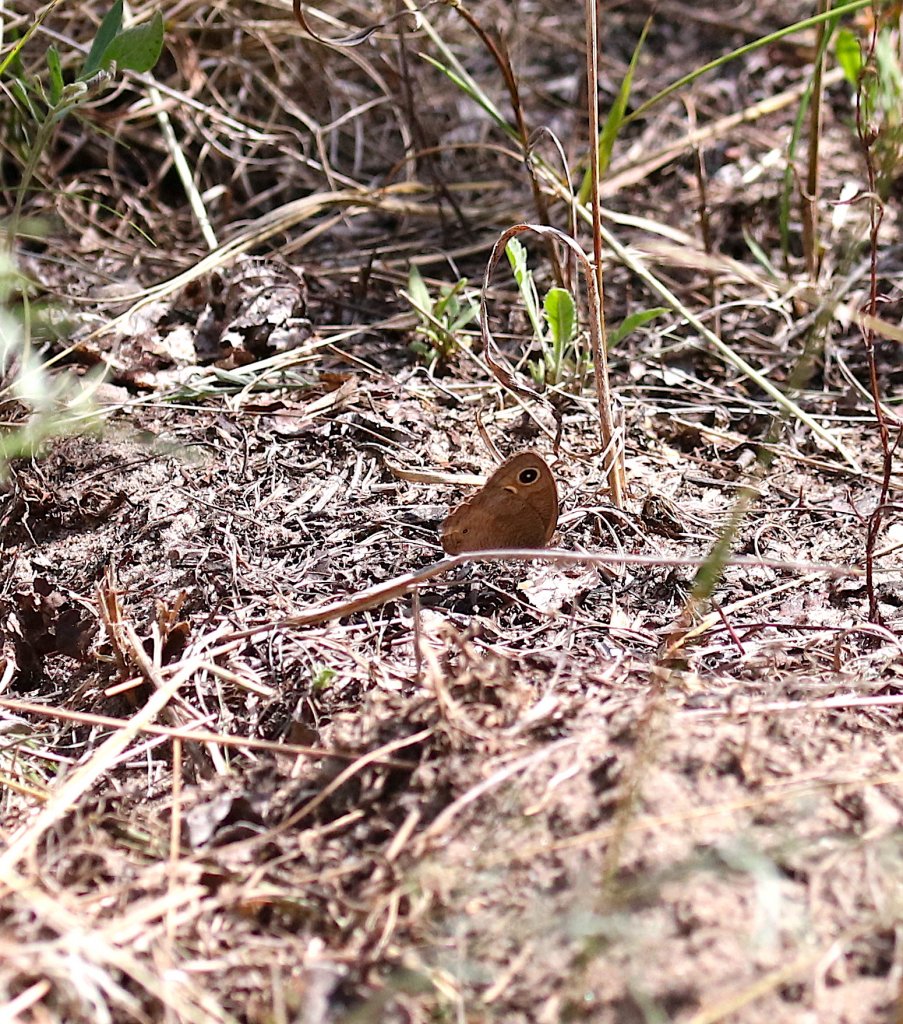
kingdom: Animalia
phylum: Arthropoda
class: Insecta
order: Lepidoptera
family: Nymphalidae
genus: Cercyonis
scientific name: Cercyonis pegala
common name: Common Wood-Nymph
